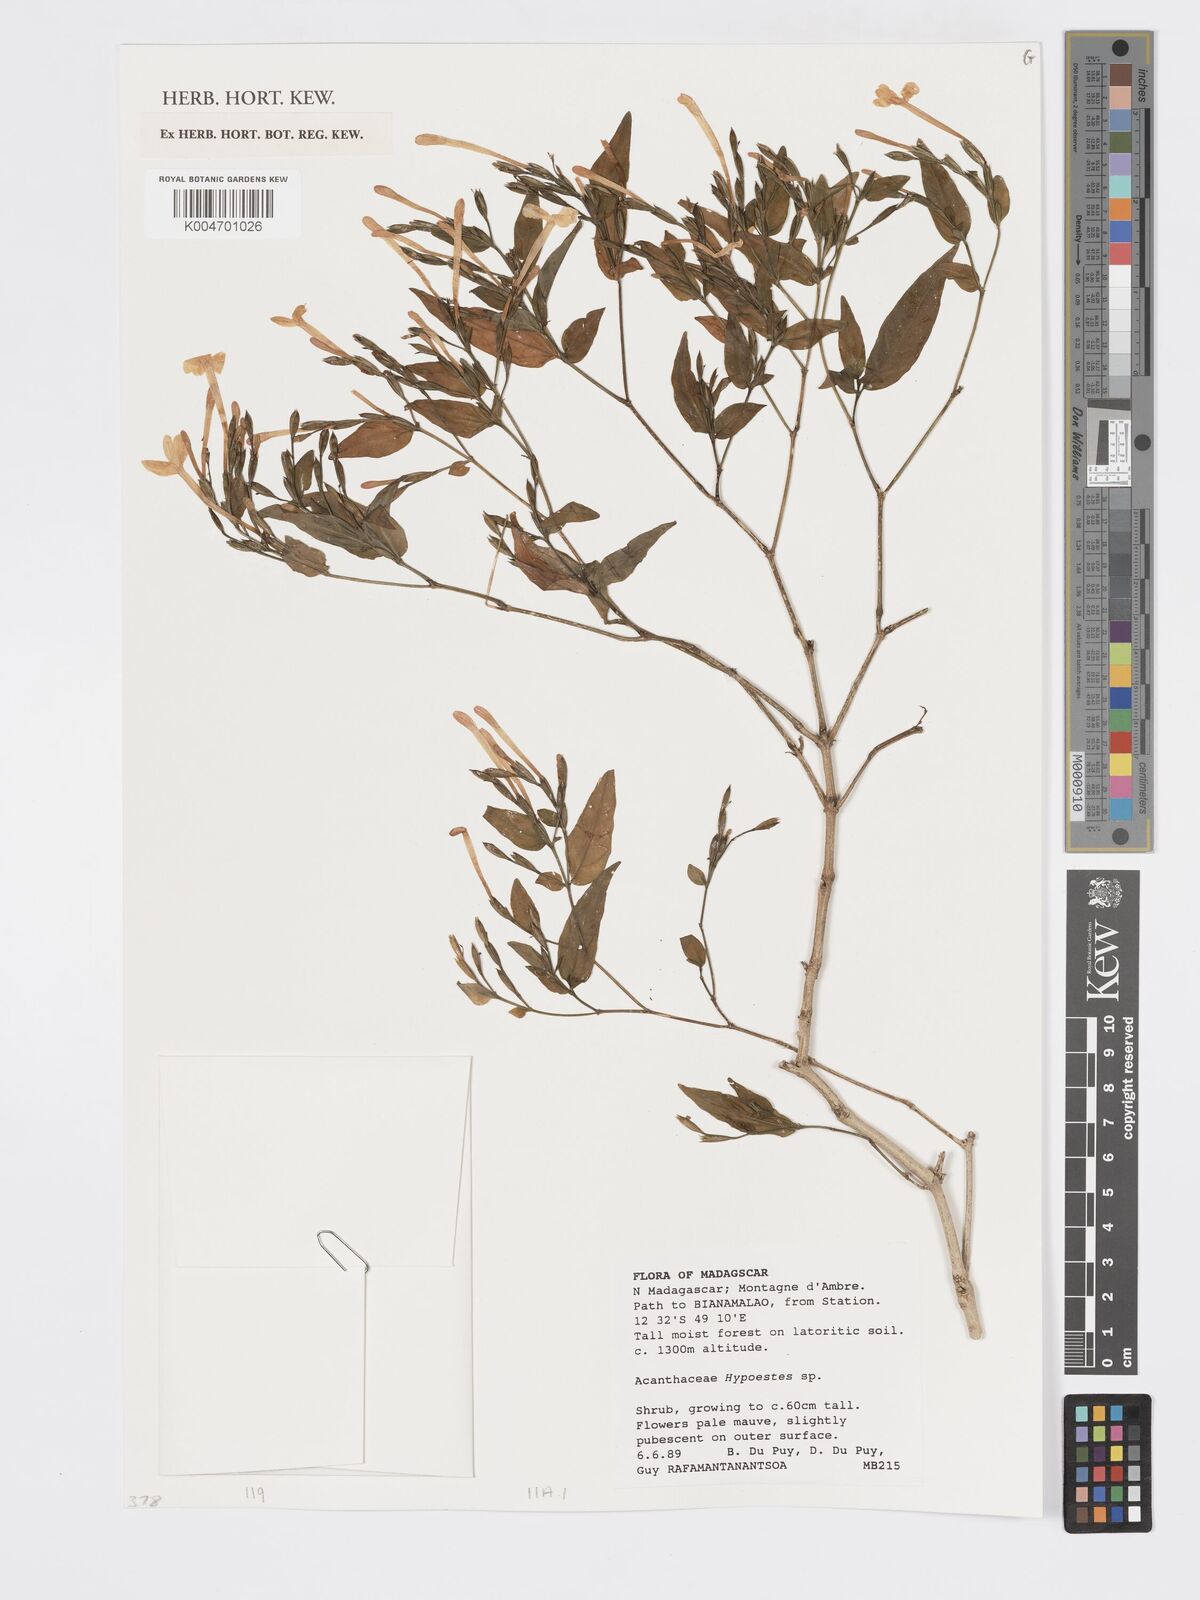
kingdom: Plantae
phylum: Tracheophyta
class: Magnoliopsida
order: Lamiales
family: Acanthaceae
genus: Hypoestes
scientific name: Hypoestes
